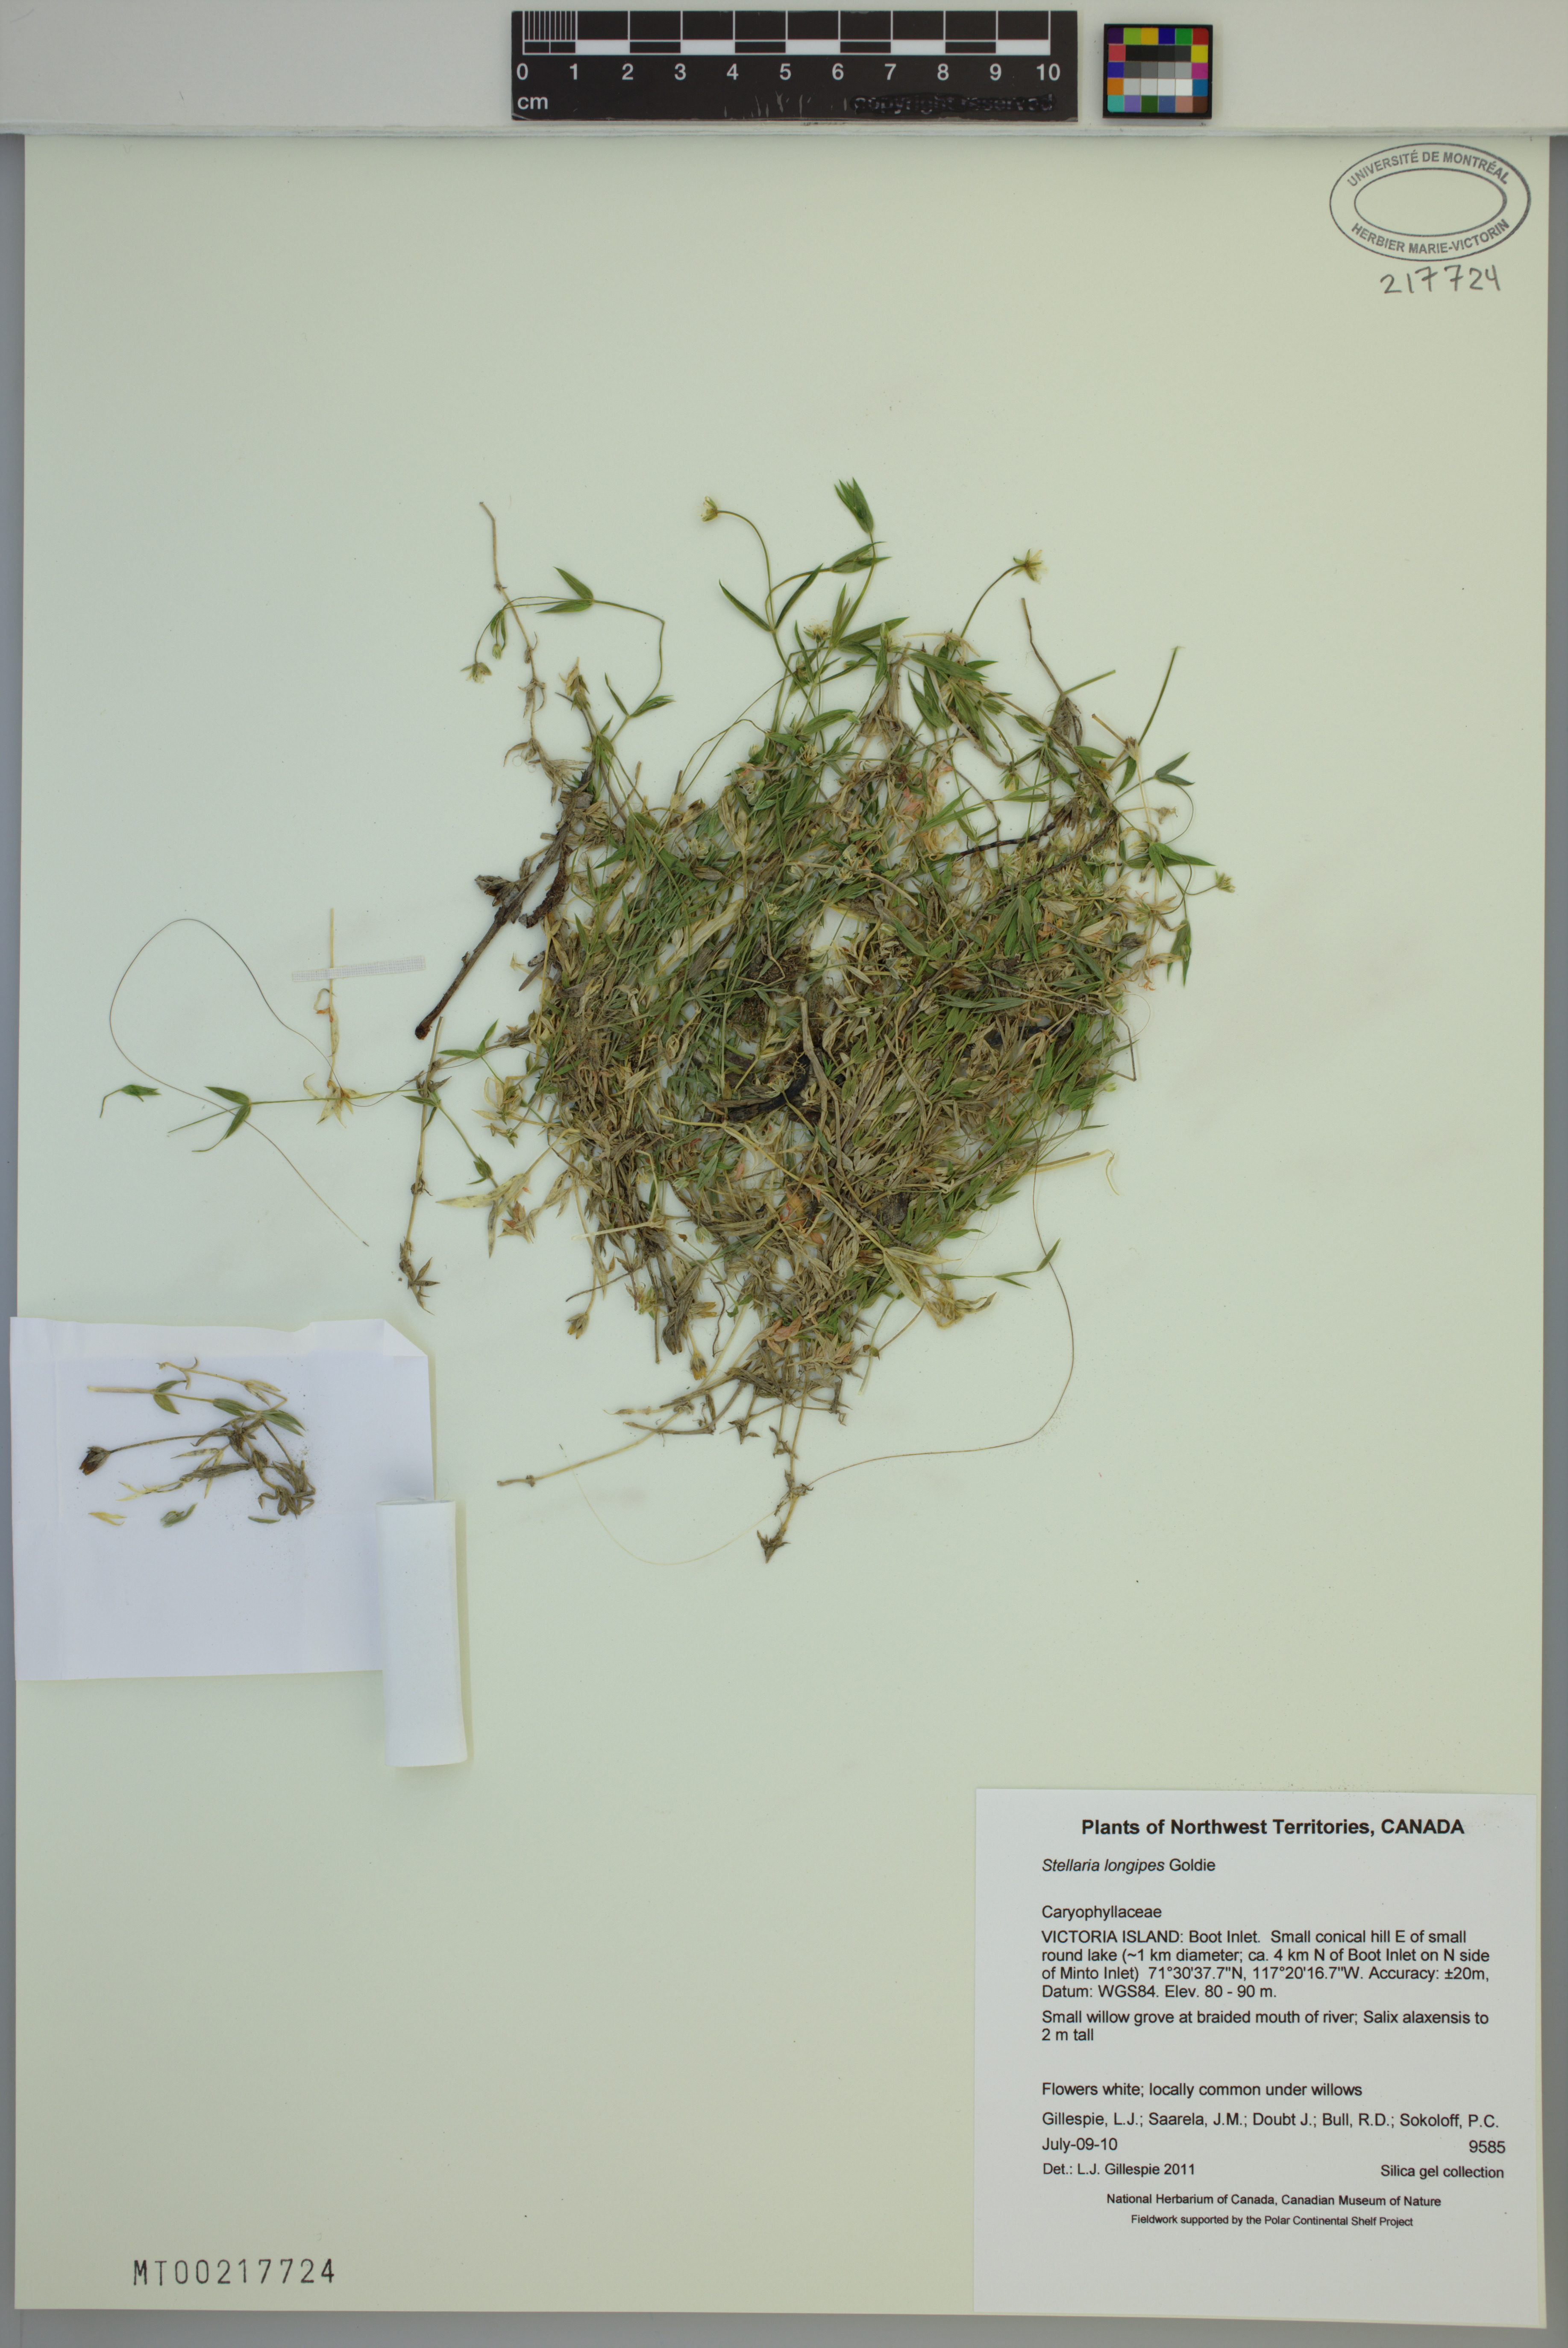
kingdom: Plantae
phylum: Tracheophyta
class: Magnoliopsida
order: Caryophyllales
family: Caryophyllaceae
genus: Stellaria
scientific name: Stellaria longipes
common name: Goldie's starwort
